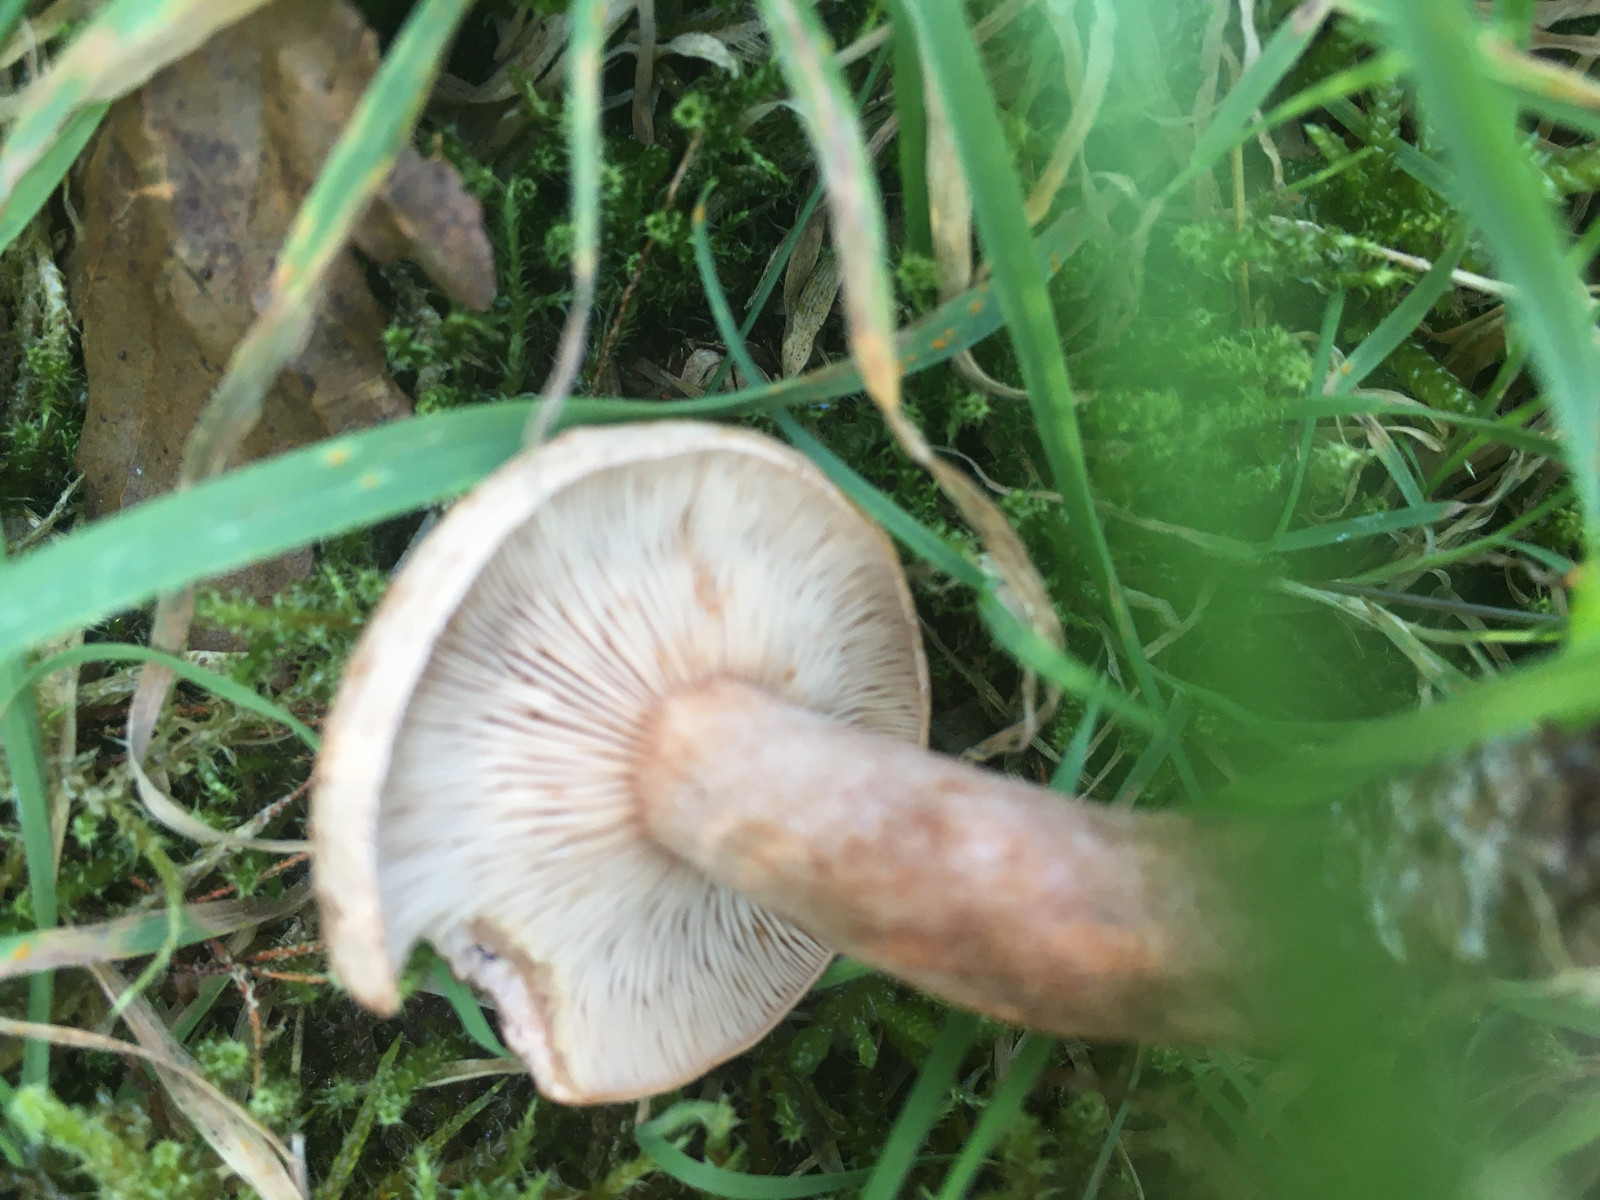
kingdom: Fungi
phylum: Basidiomycota
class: Agaricomycetes
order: Russulales
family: Russulaceae
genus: Lactarius
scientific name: Lactarius quietus
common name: ege-mælkehat
